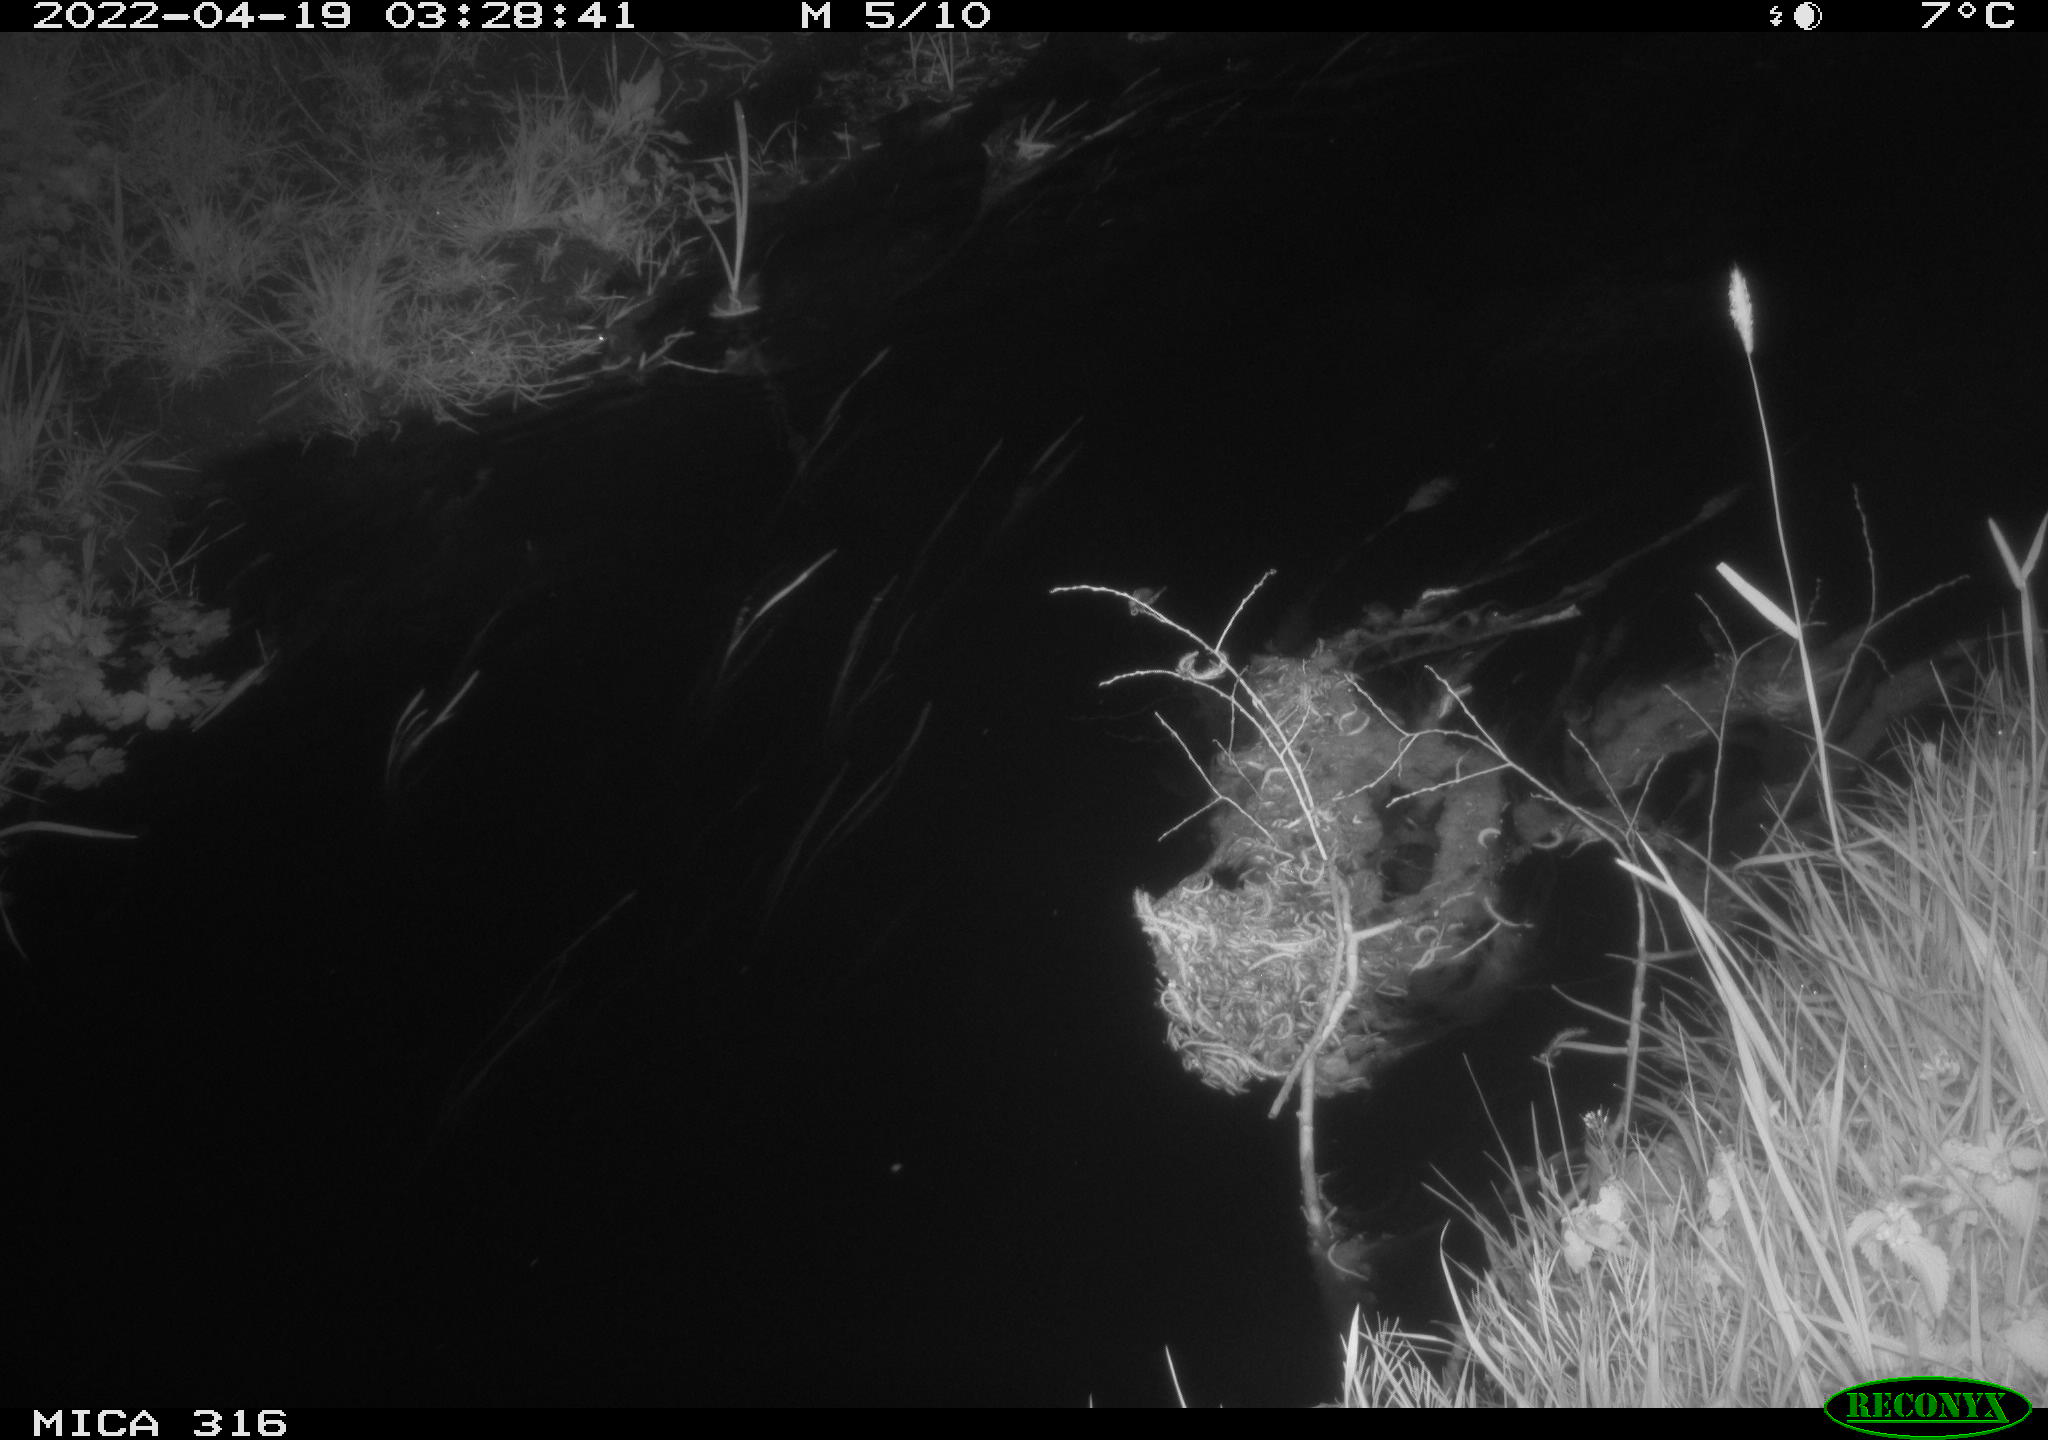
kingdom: Animalia
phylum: Chordata
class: Aves
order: Anseriformes
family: Anatidae
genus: Anas
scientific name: Anas platyrhynchos
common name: Mallard
